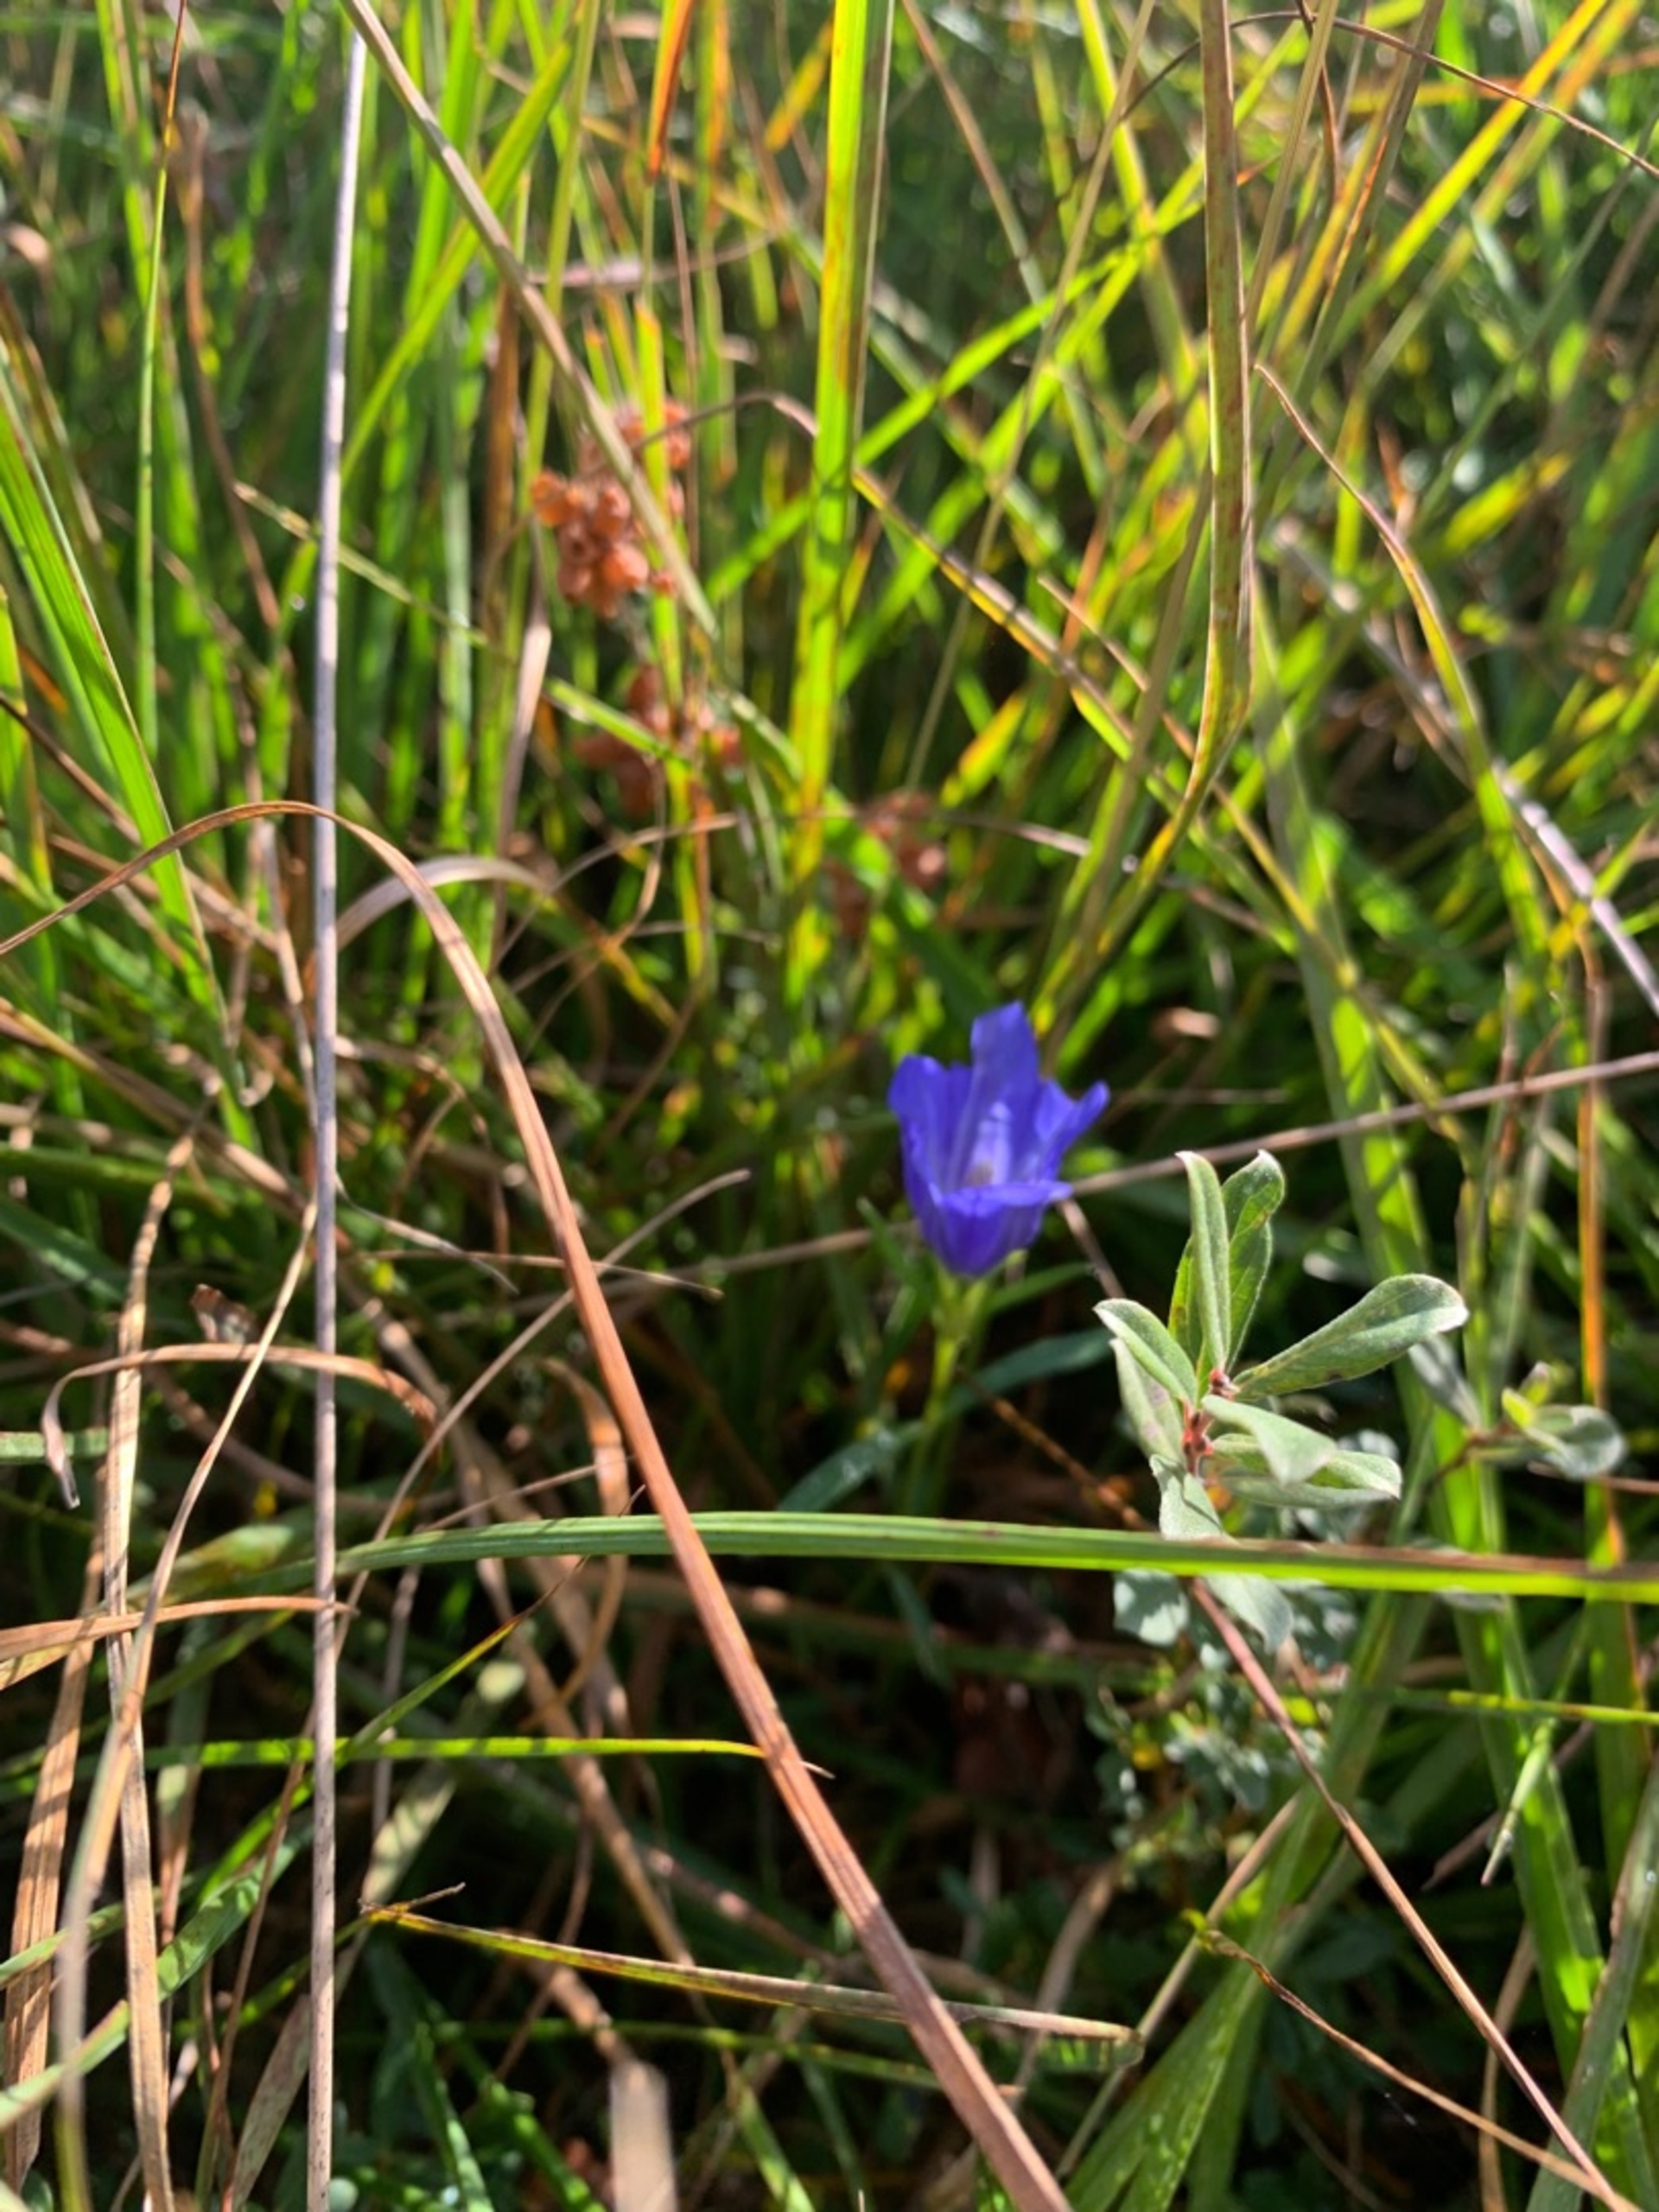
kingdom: Plantae
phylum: Tracheophyta
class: Magnoliopsida
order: Gentianales
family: Gentianaceae
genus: Gentiana
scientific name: Gentiana pneumonanthe
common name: Klokke-ensian
